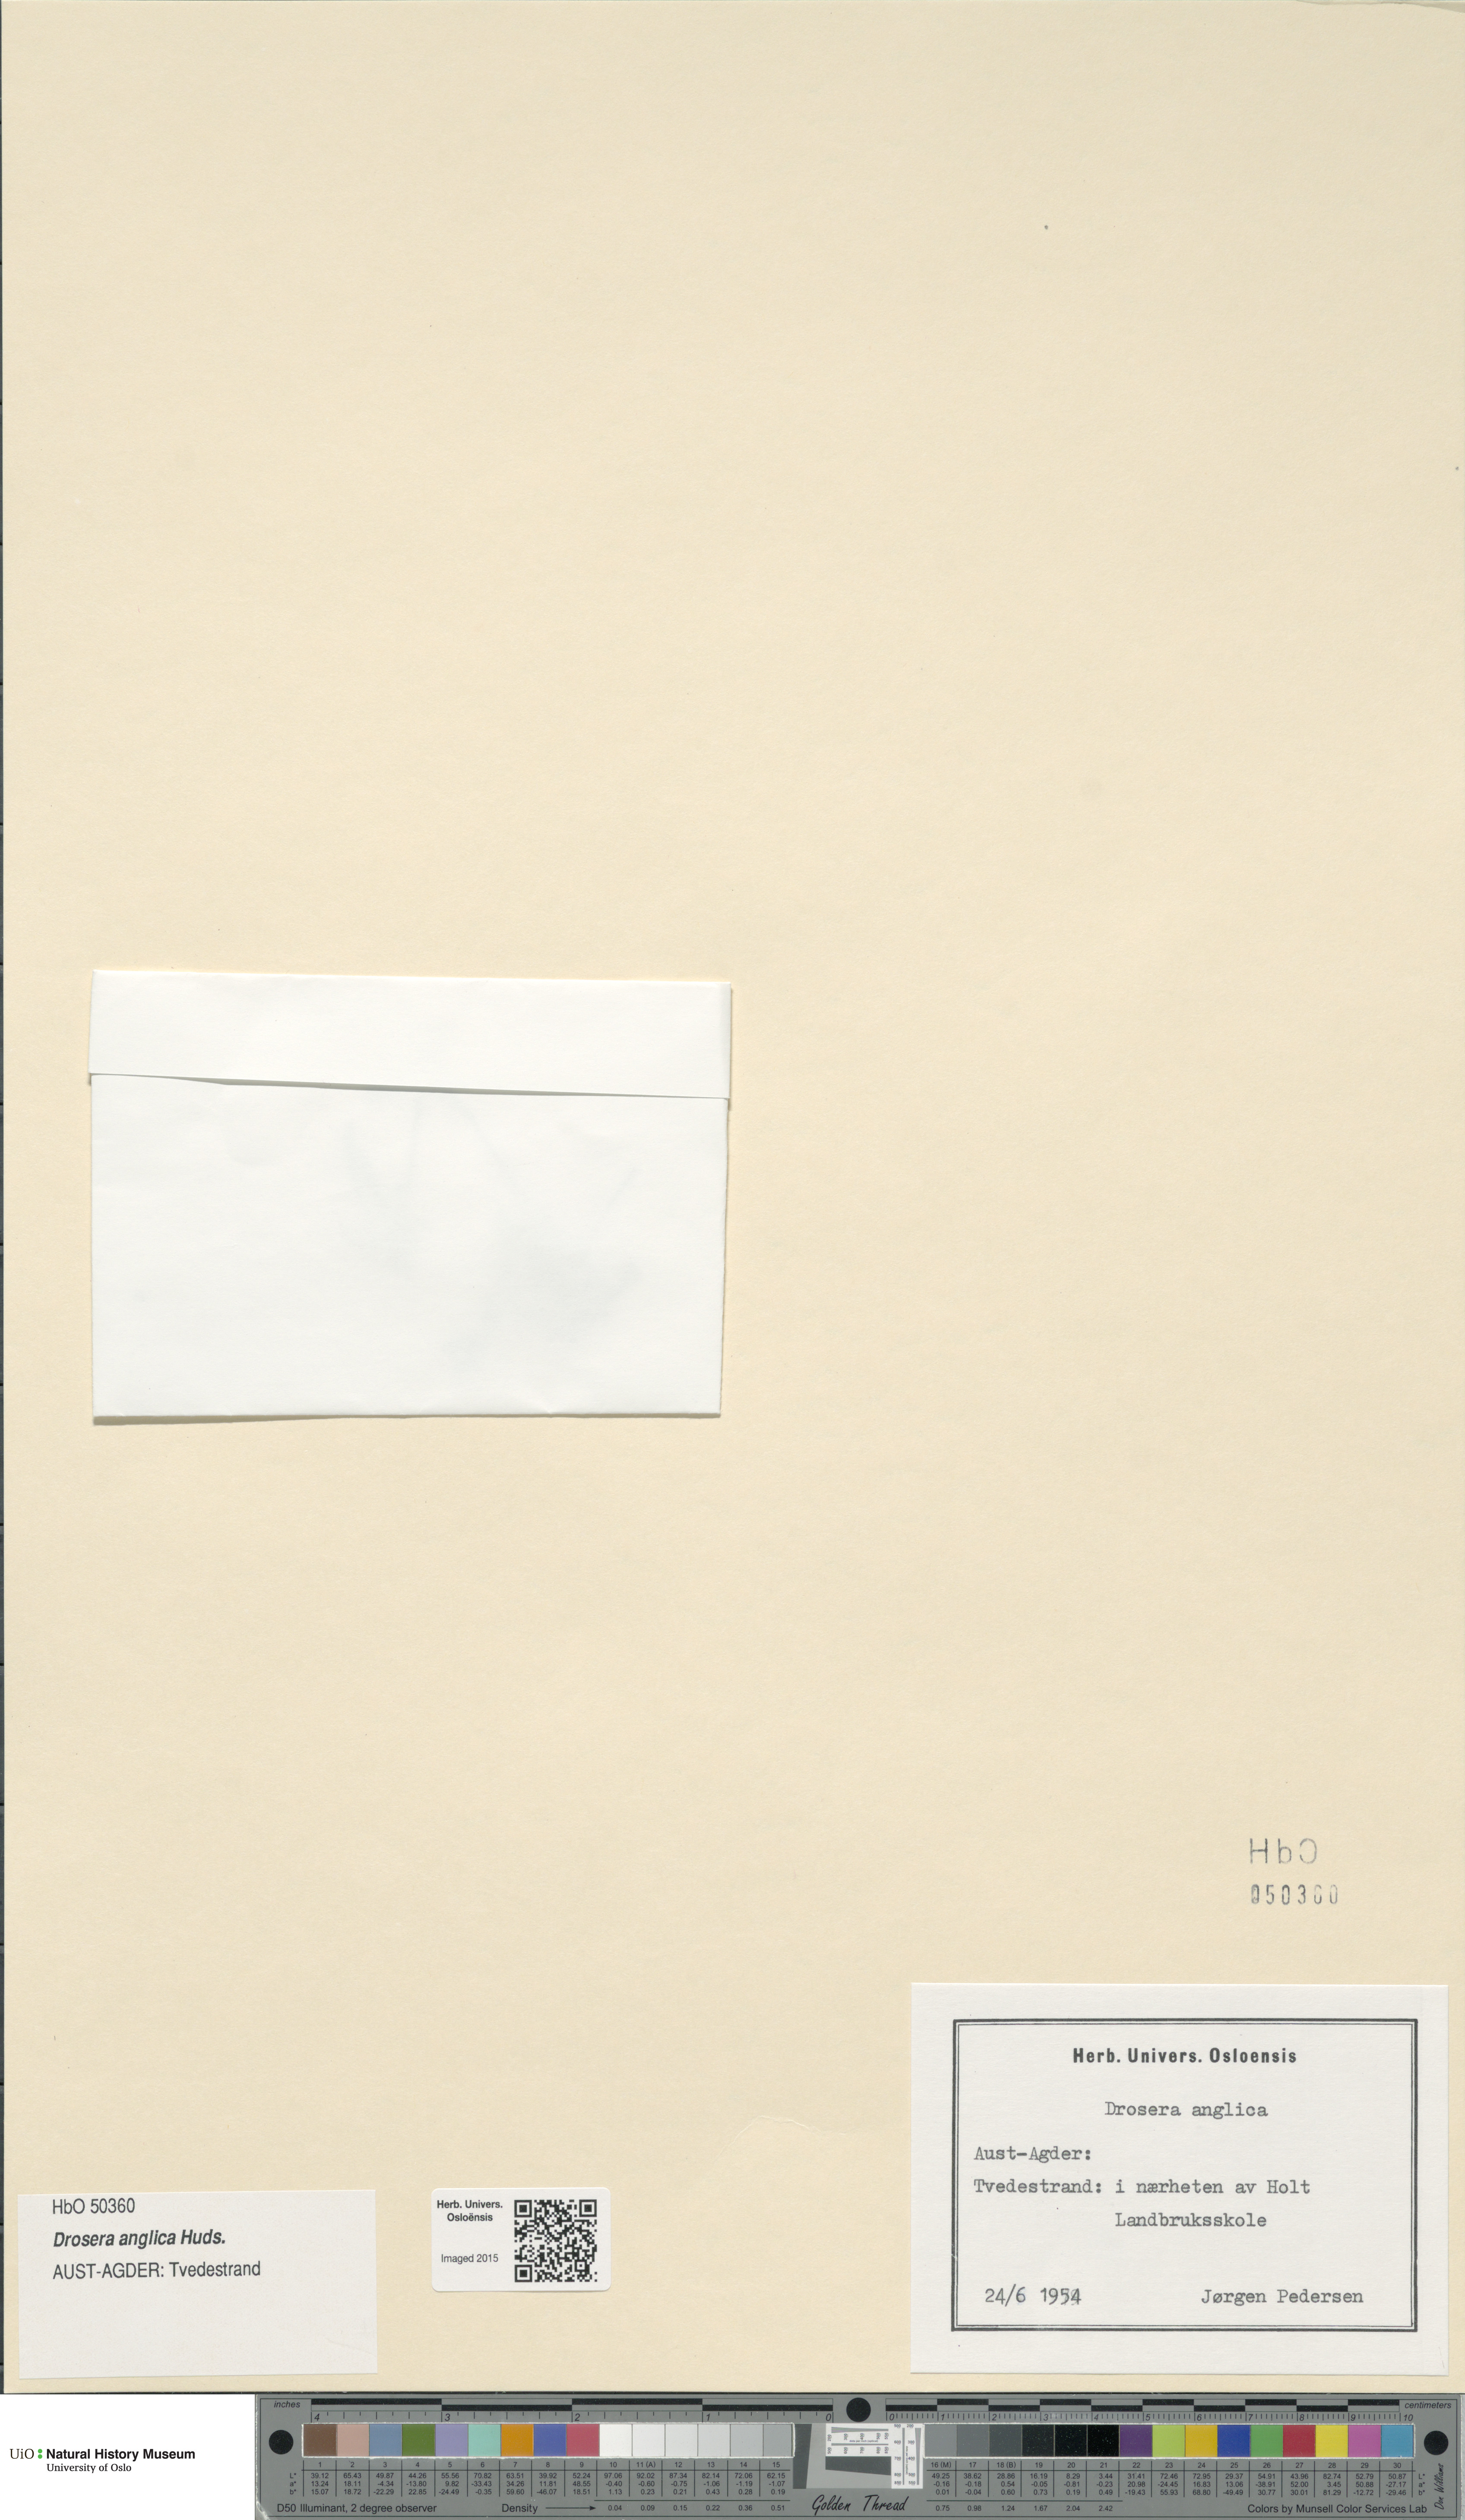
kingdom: Plantae
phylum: Tracheophyta
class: Magnoliopsida
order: Caryophyllales
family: Droseraceae
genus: Drosera
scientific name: Drosera anglica
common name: Great sundew
